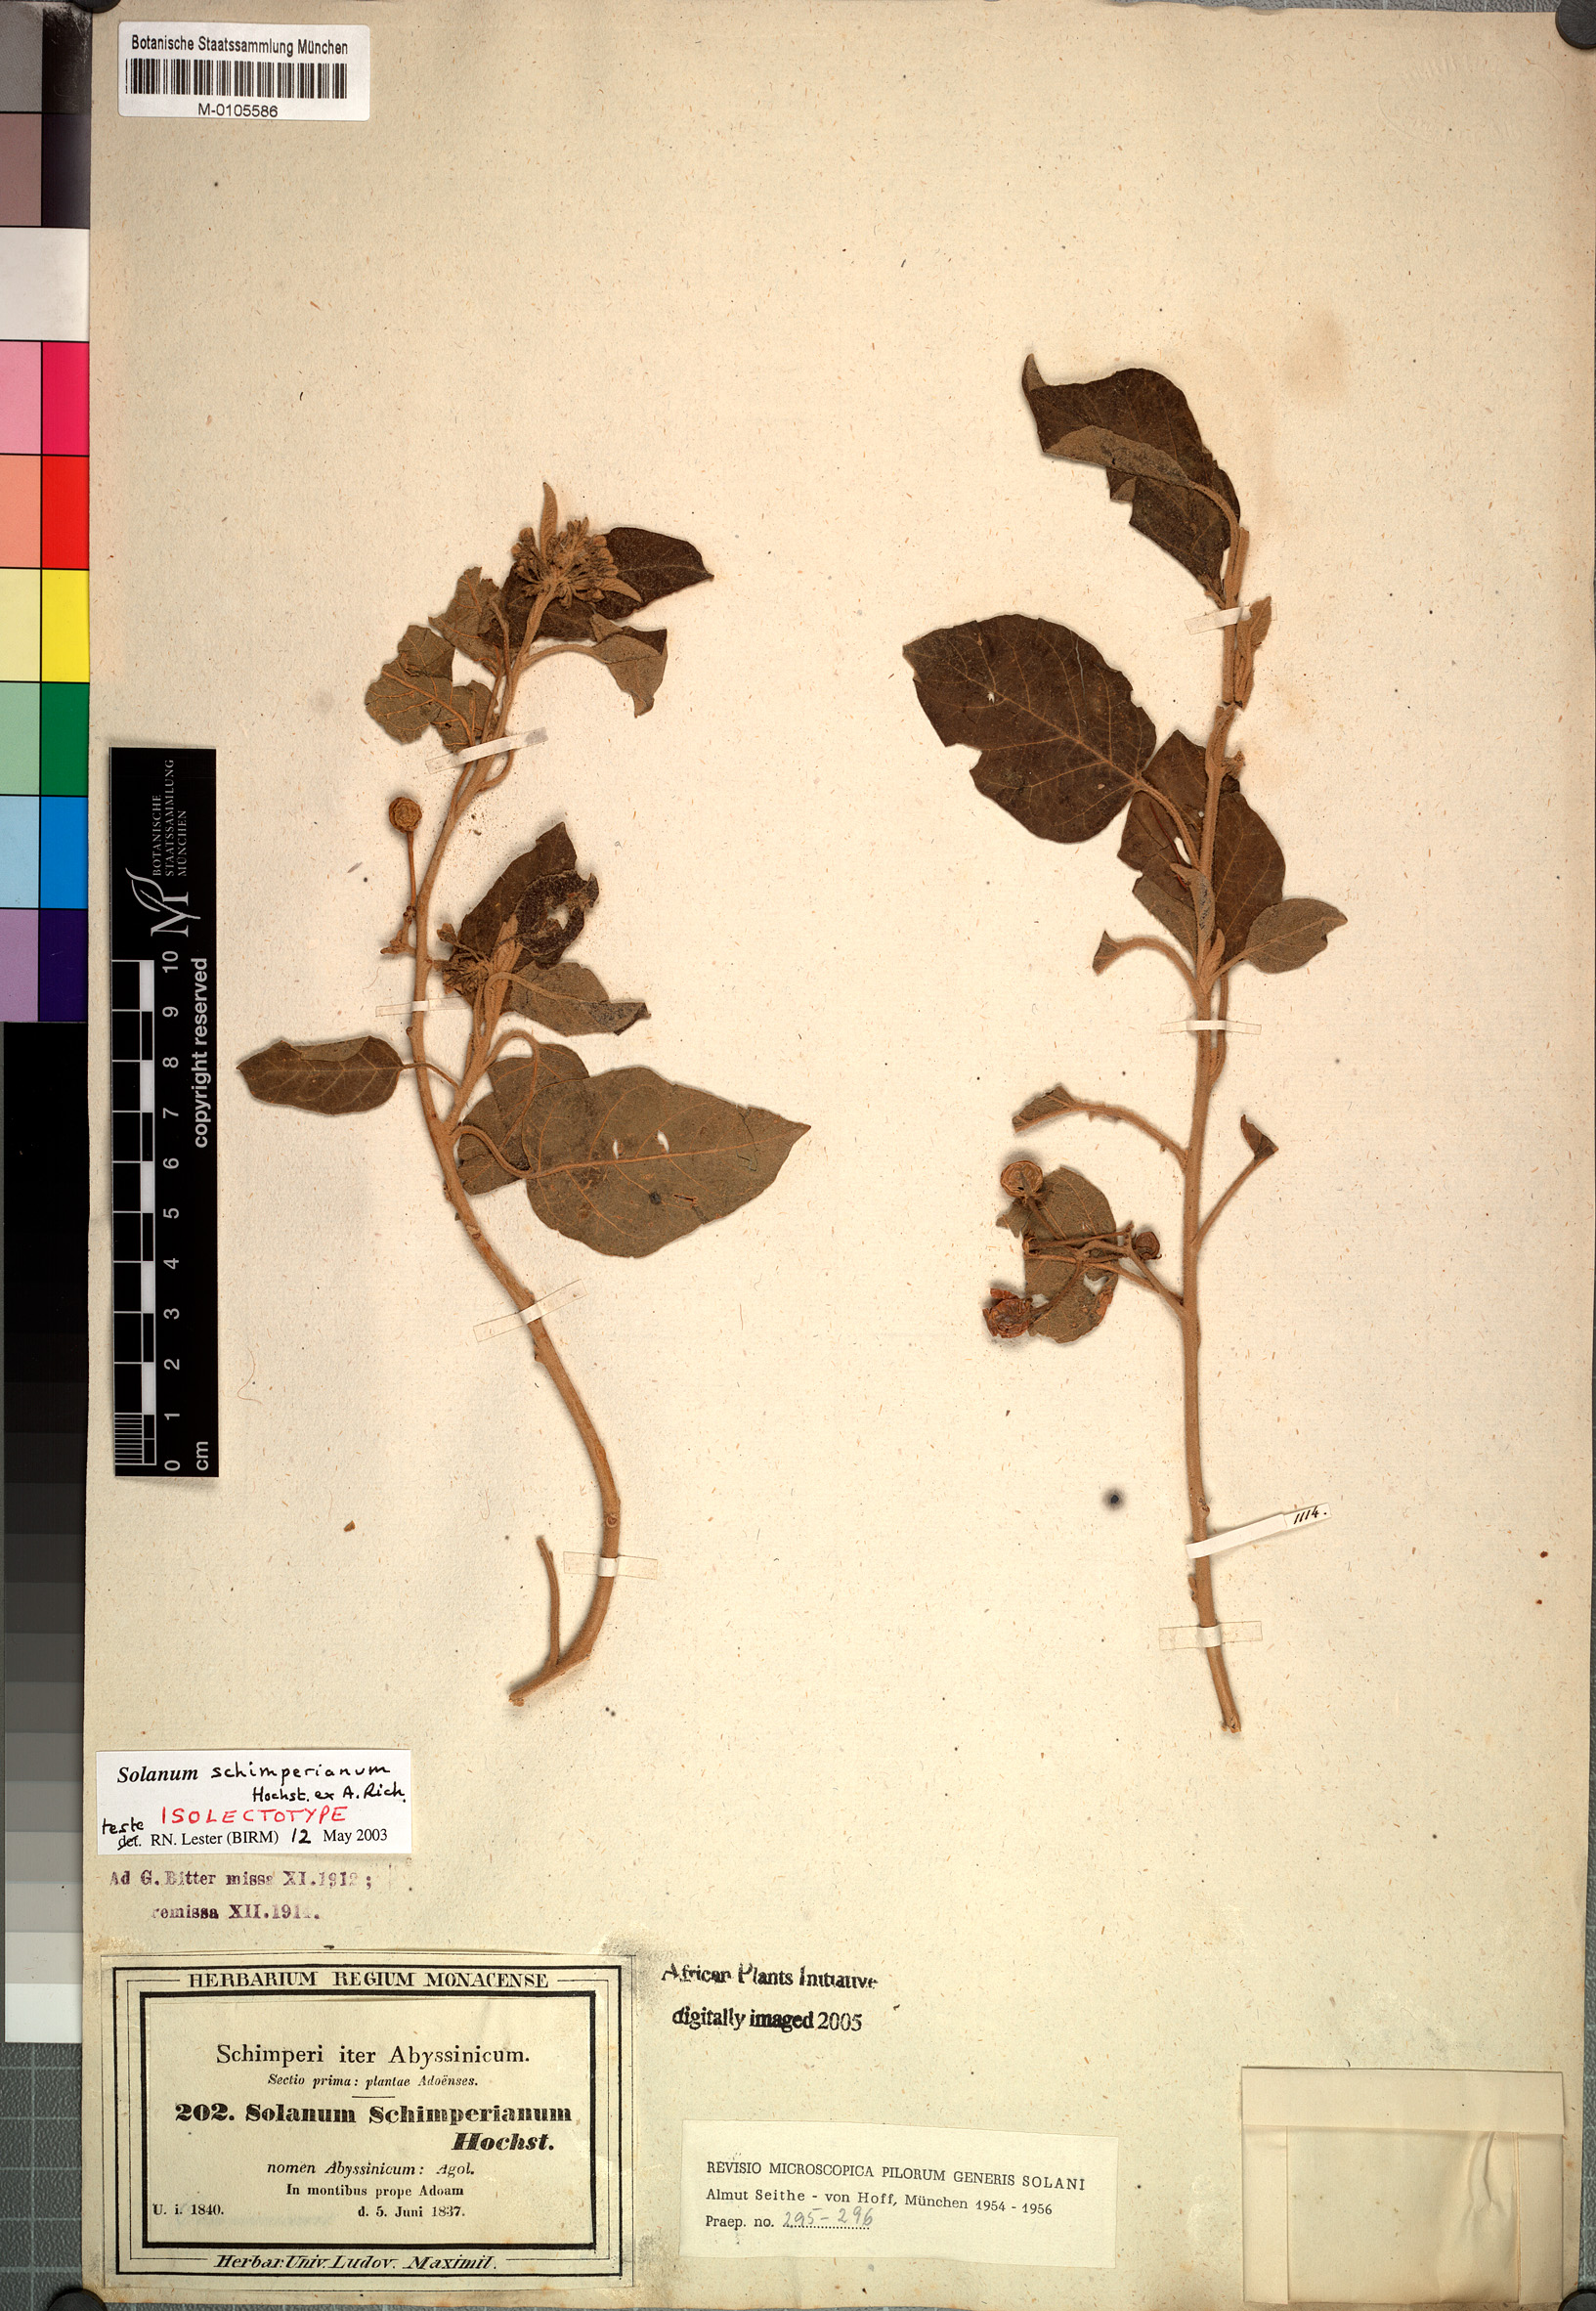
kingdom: Plantae
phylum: Tracheophyta
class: Magnoliopsida
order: Solanales
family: Solanaceae
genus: Solanum
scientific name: Solanum schimperianum
